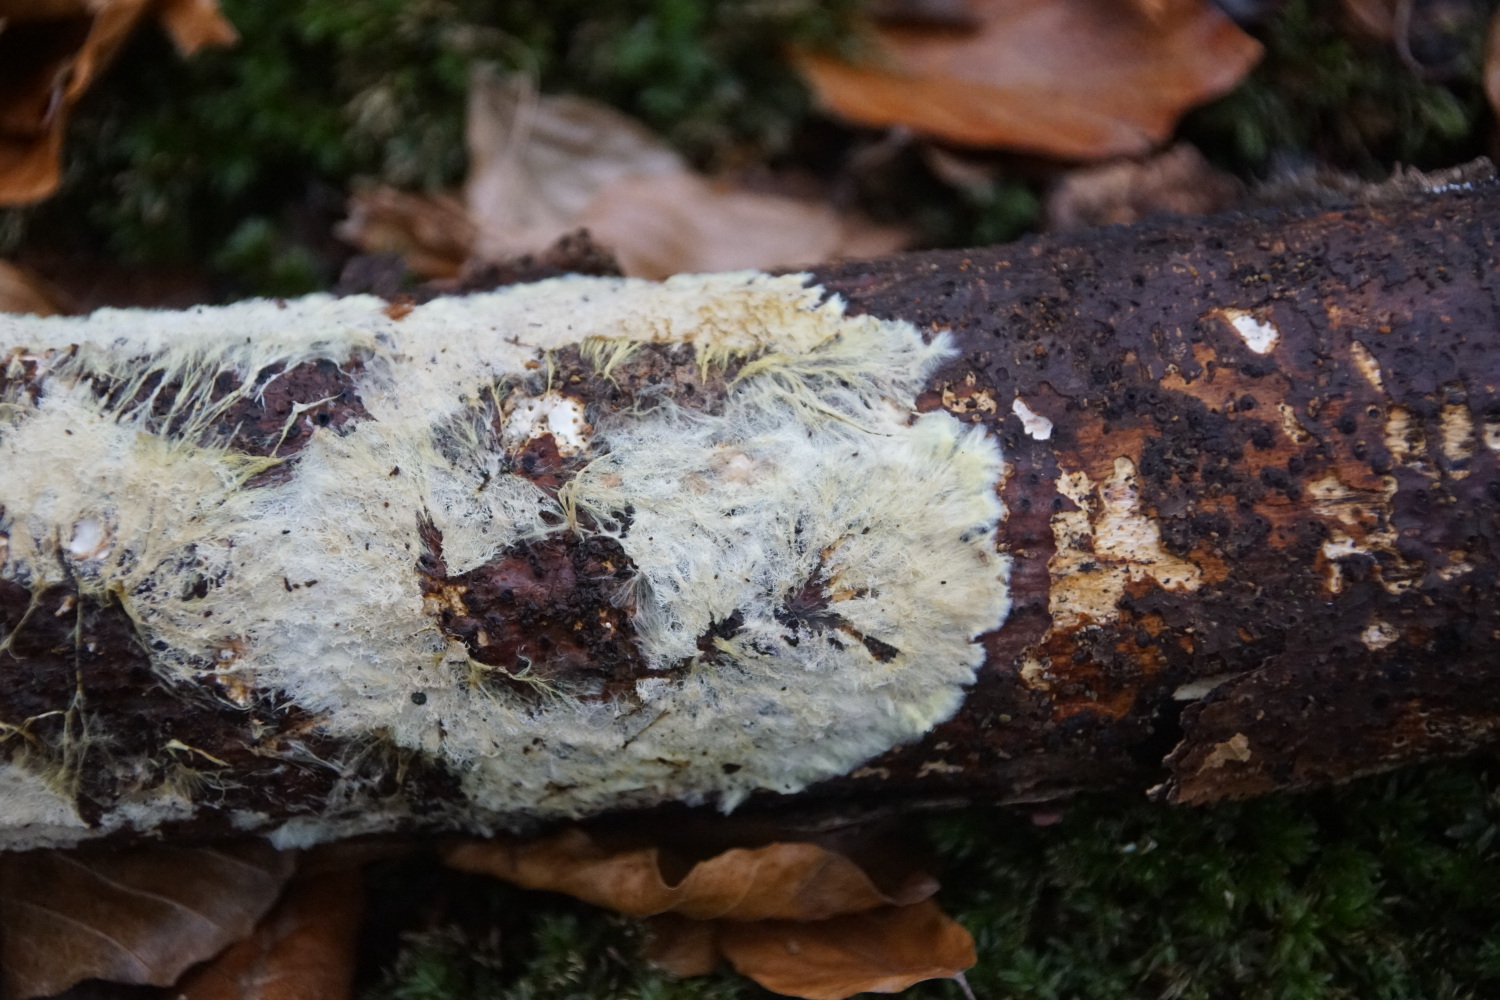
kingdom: Fungi
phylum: Basidiomycota
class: Agaricomycetes
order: Russulales
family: Xenasmataceae
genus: Xenasmatella
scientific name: Xenasmatella vaga
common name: svovl-strenghinde
